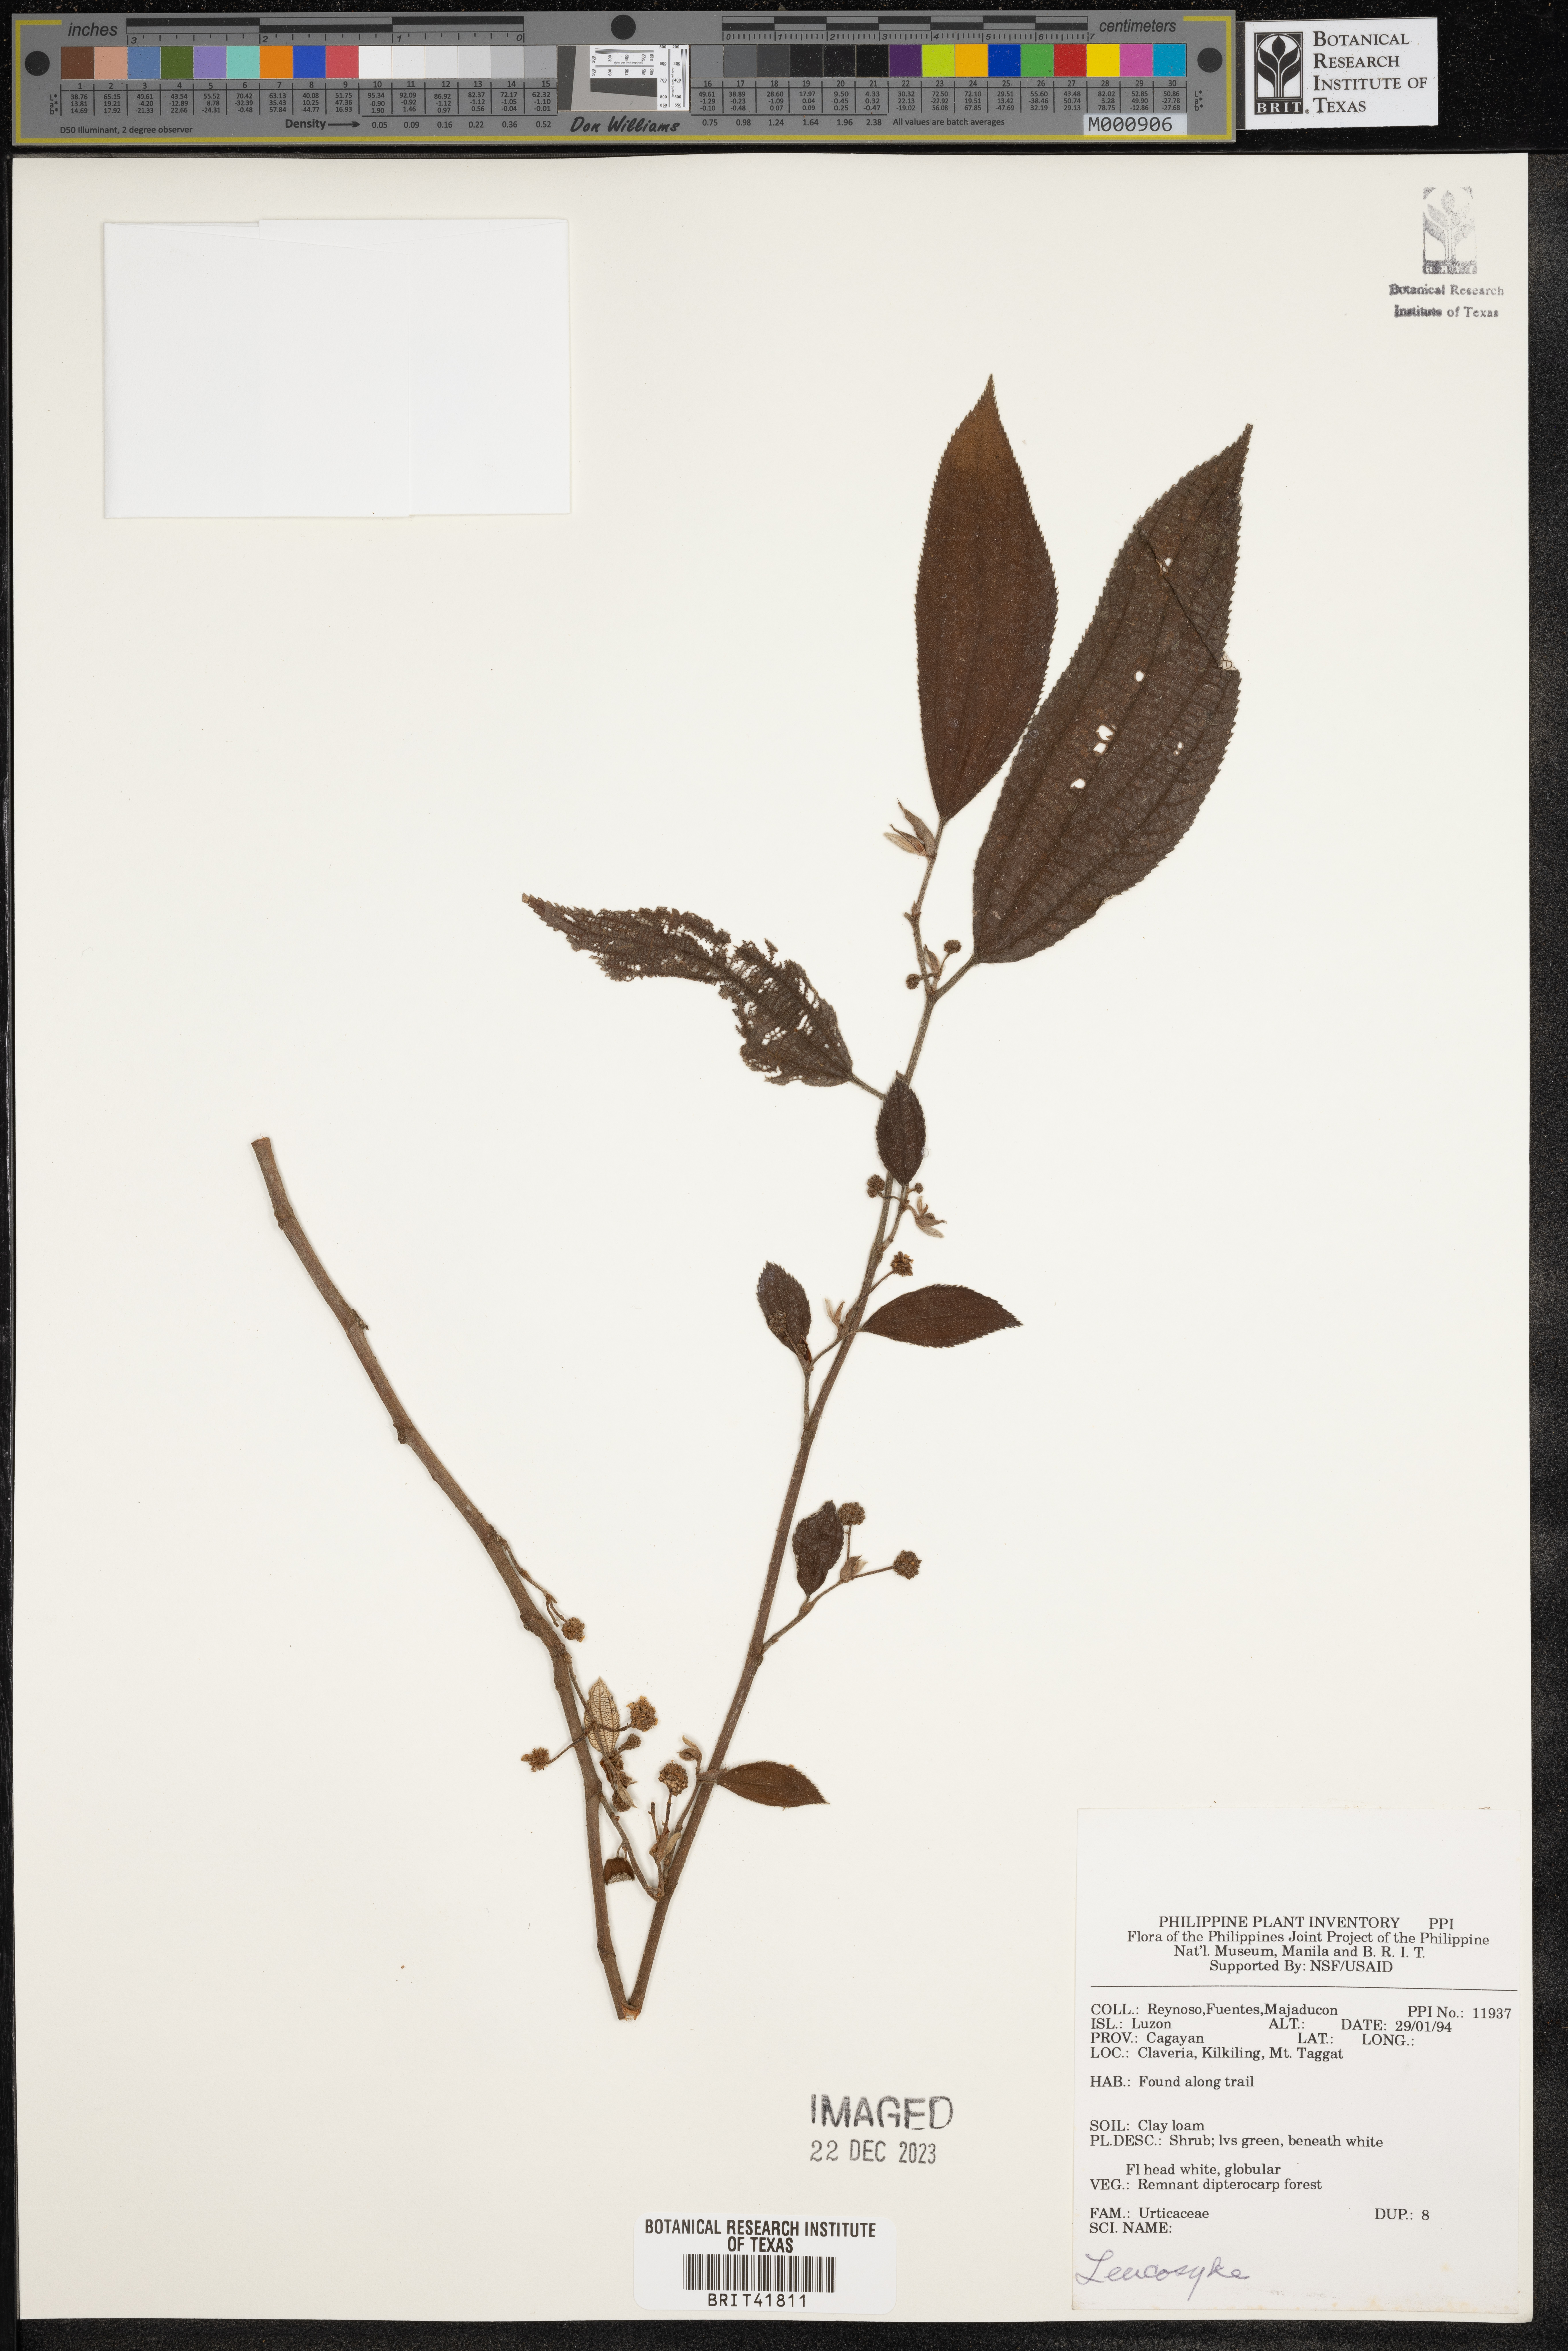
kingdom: Plantae
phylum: Tracheophyta
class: Magnoliopsida
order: Rosales
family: Urticaceae
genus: Leucosyke
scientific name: Leucosyke
